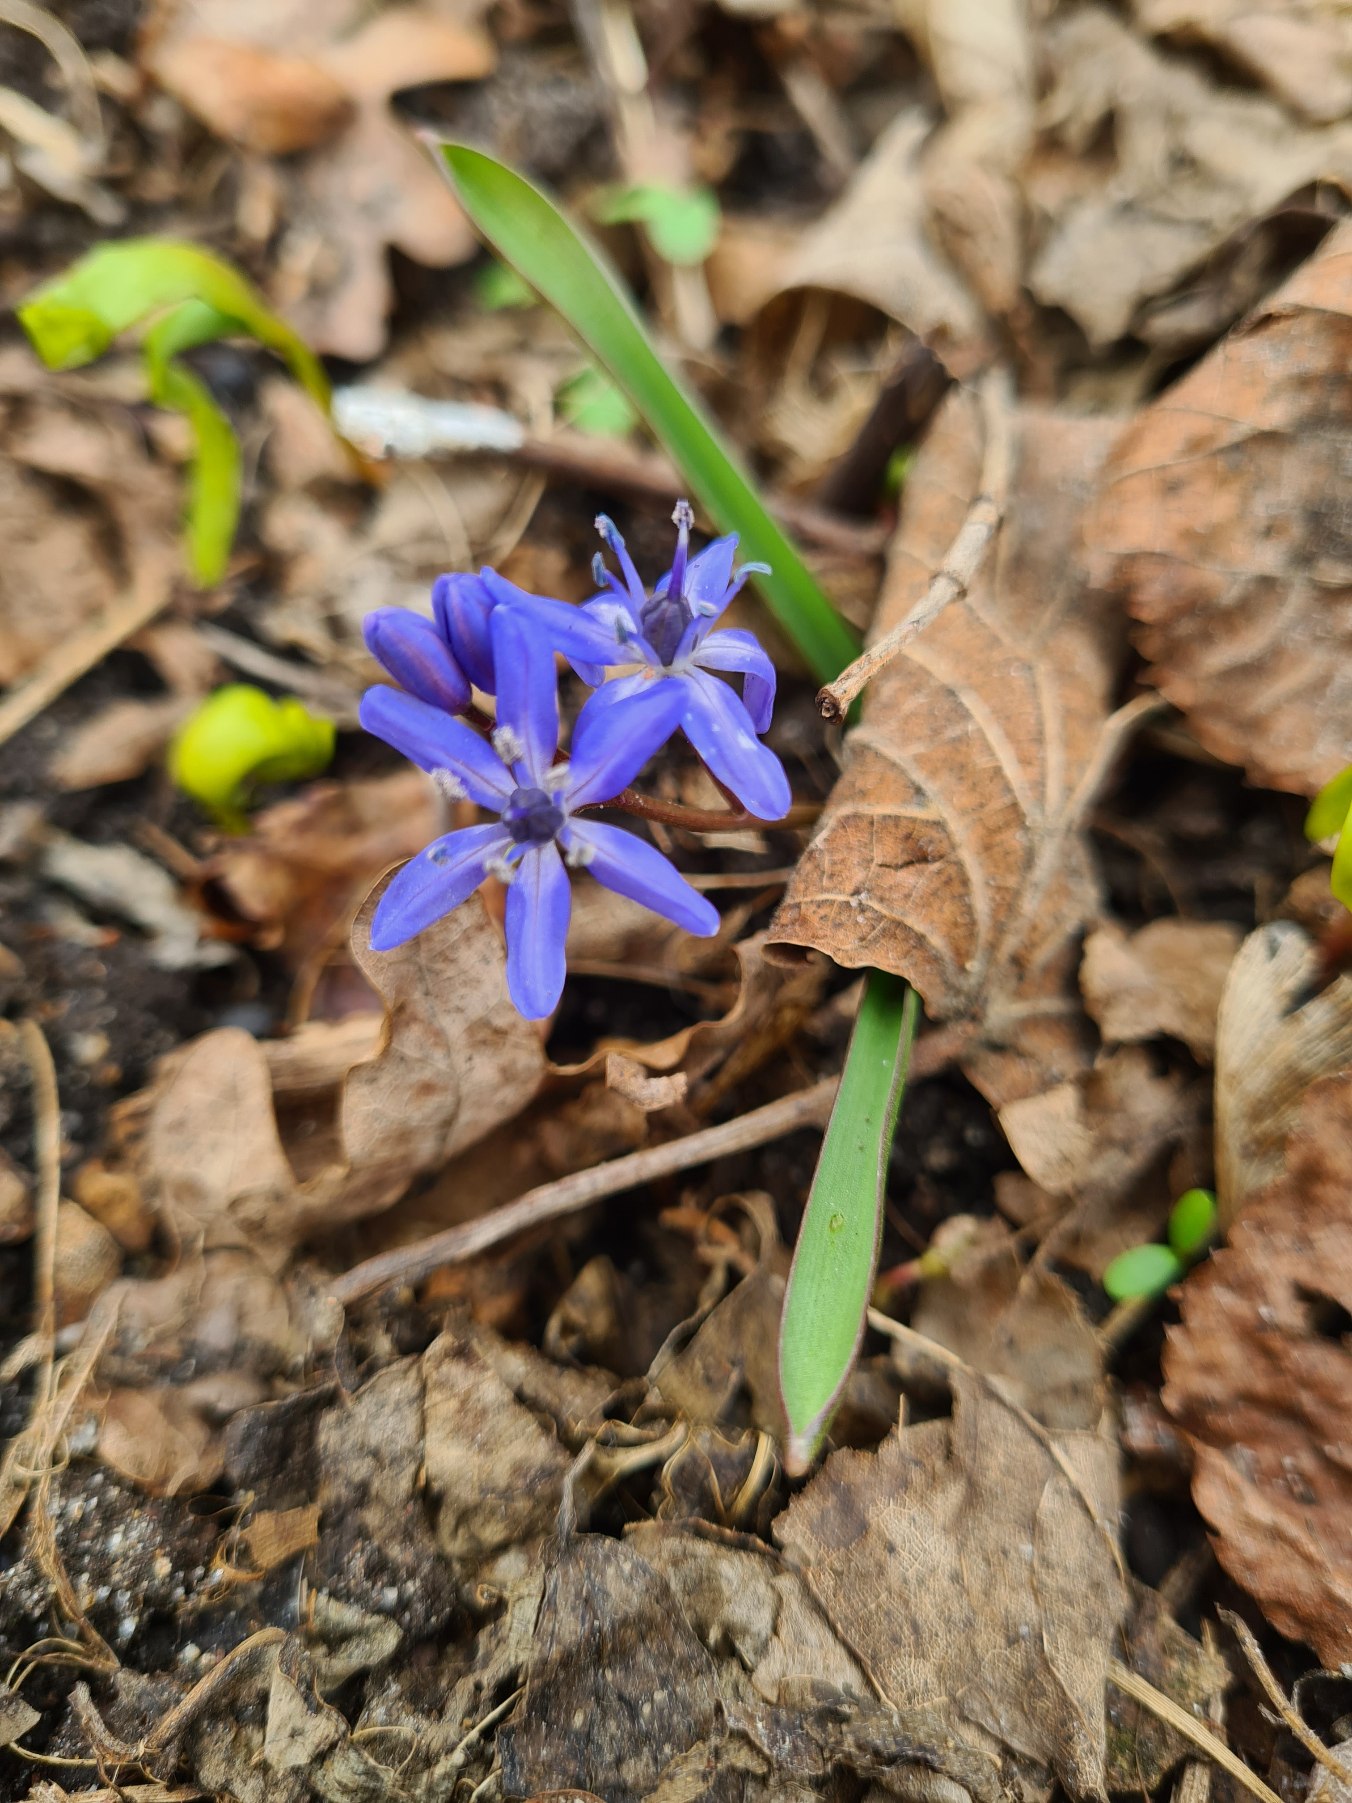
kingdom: Plantae
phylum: Tracheophyta
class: Liliopsida
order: Asparagales
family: Asparagaceae
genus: Scilla
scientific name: Scilla bifolia
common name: Tobladet skilla
